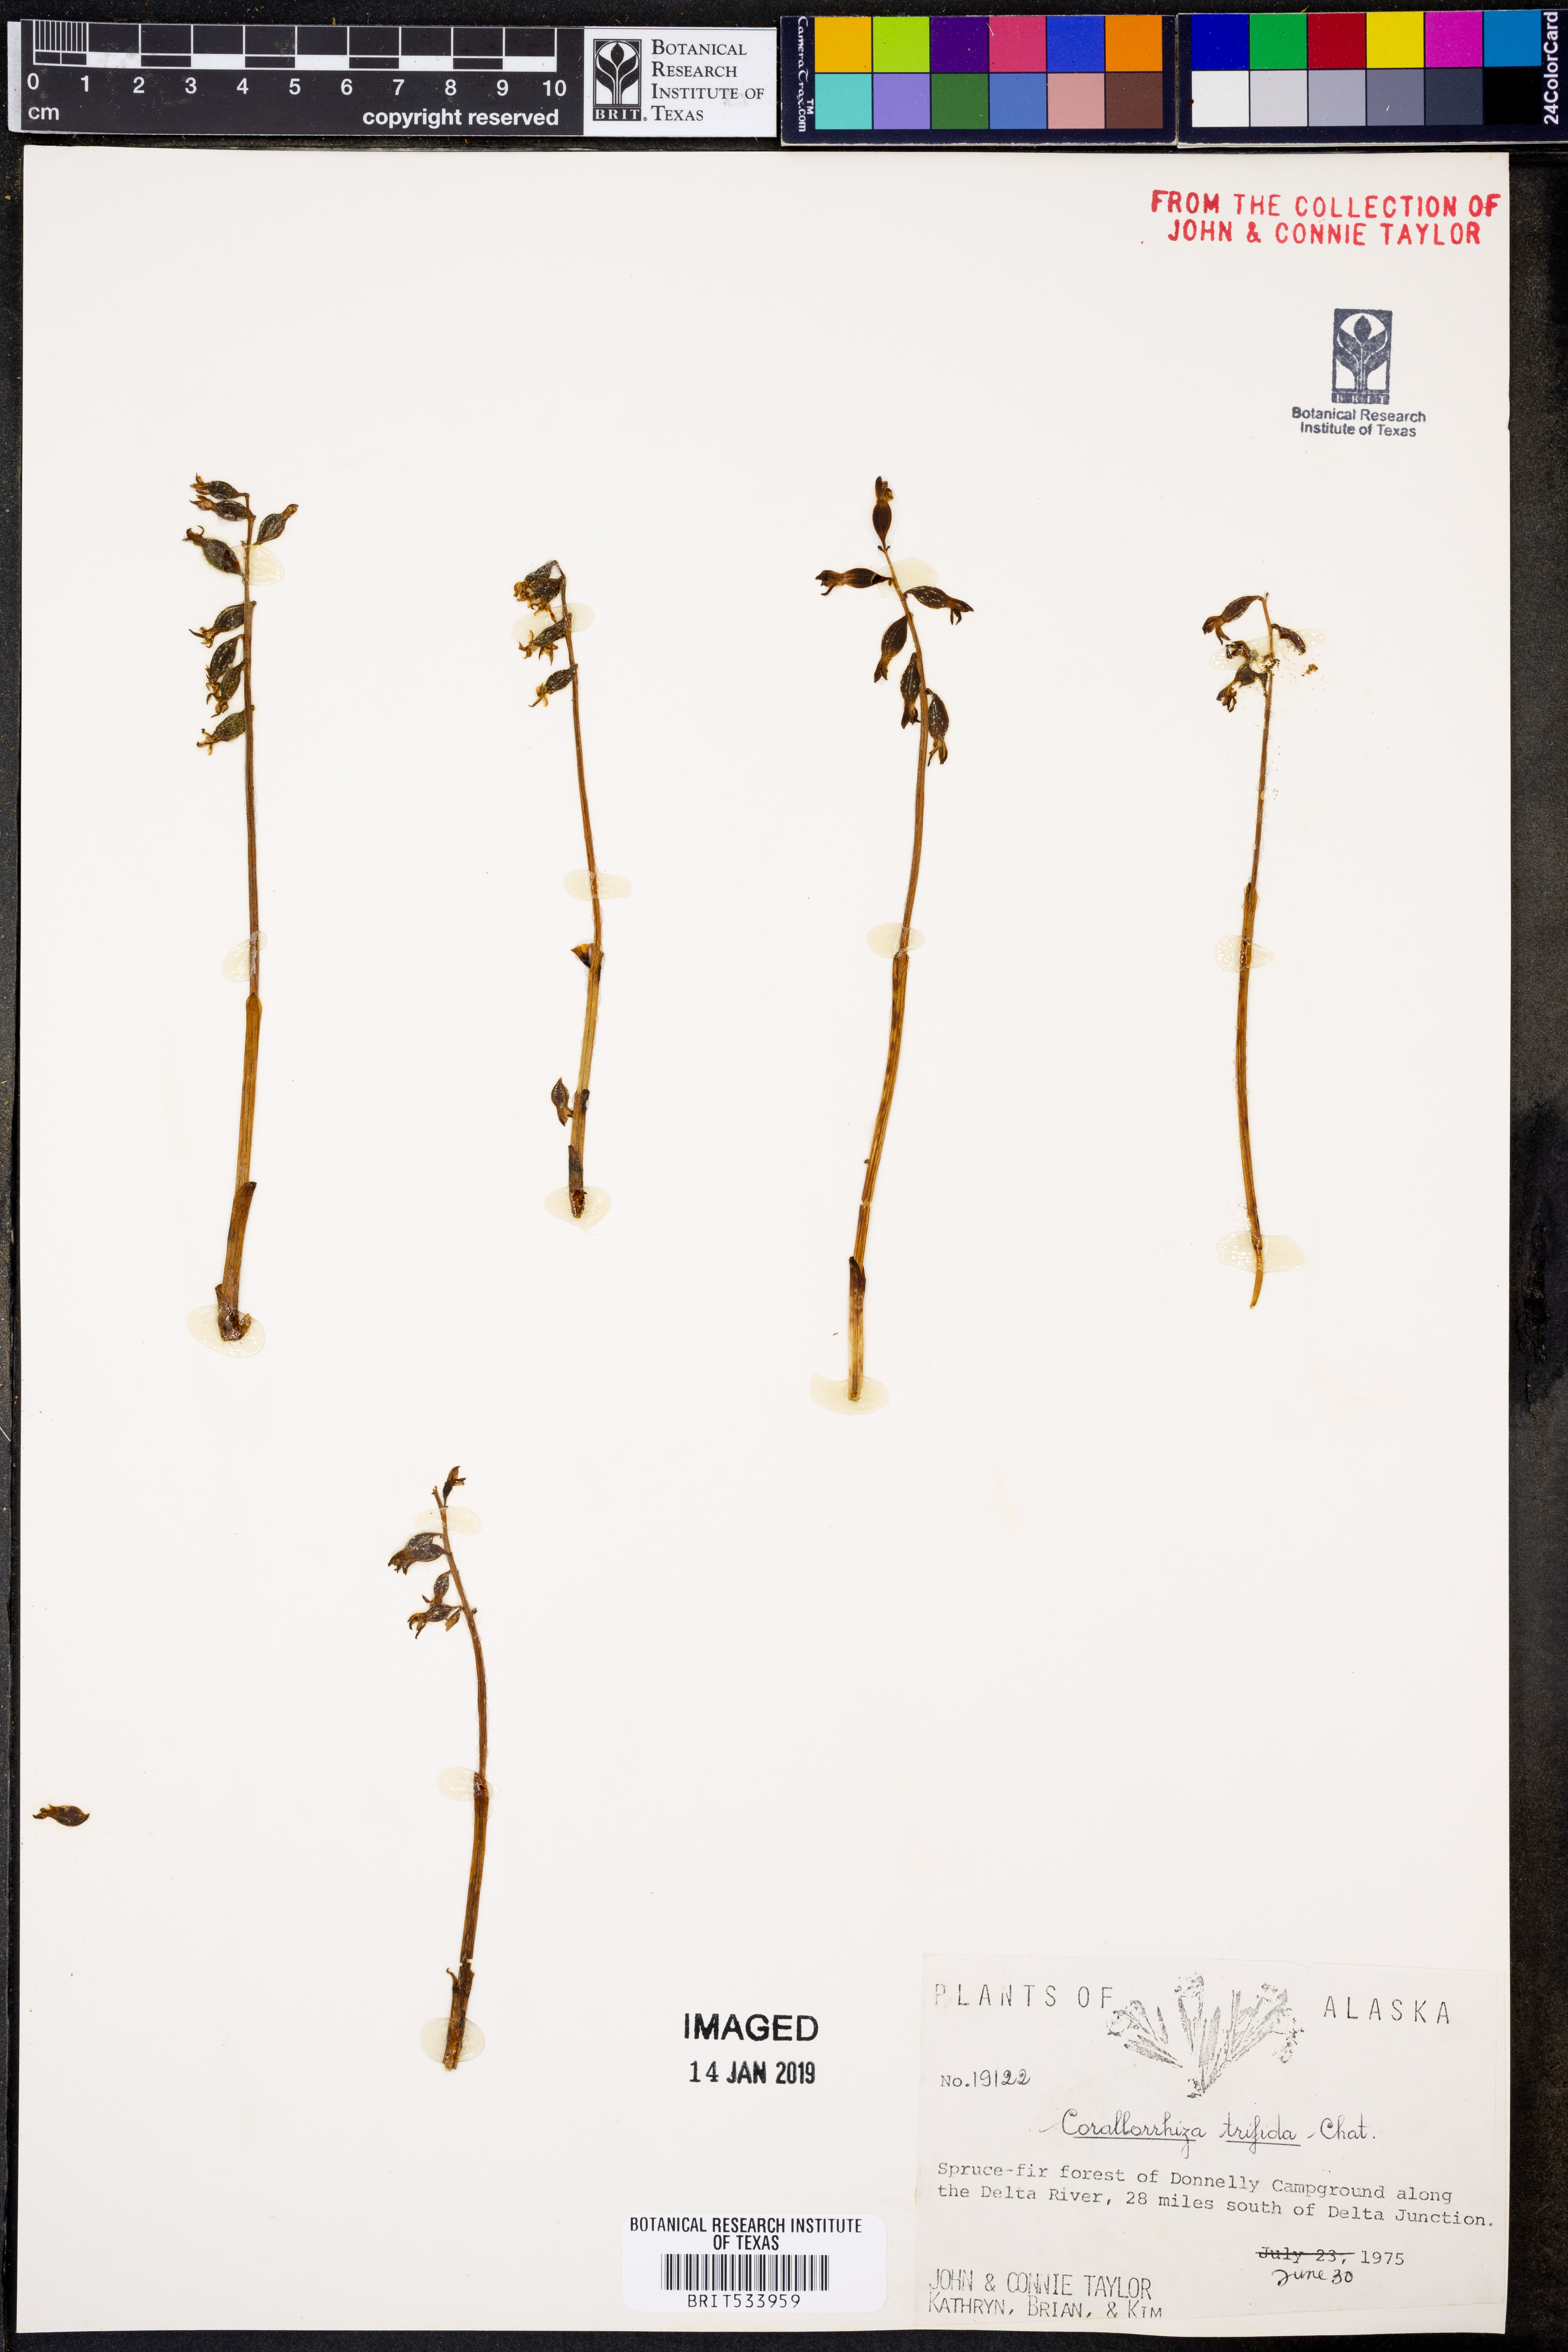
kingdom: Plantae
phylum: Tracheophyta
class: Liliopsida
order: Asparagales
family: Orchidaceae
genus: Corallorhiza
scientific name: Corallorhiza trifida
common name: Yellow coralroot
